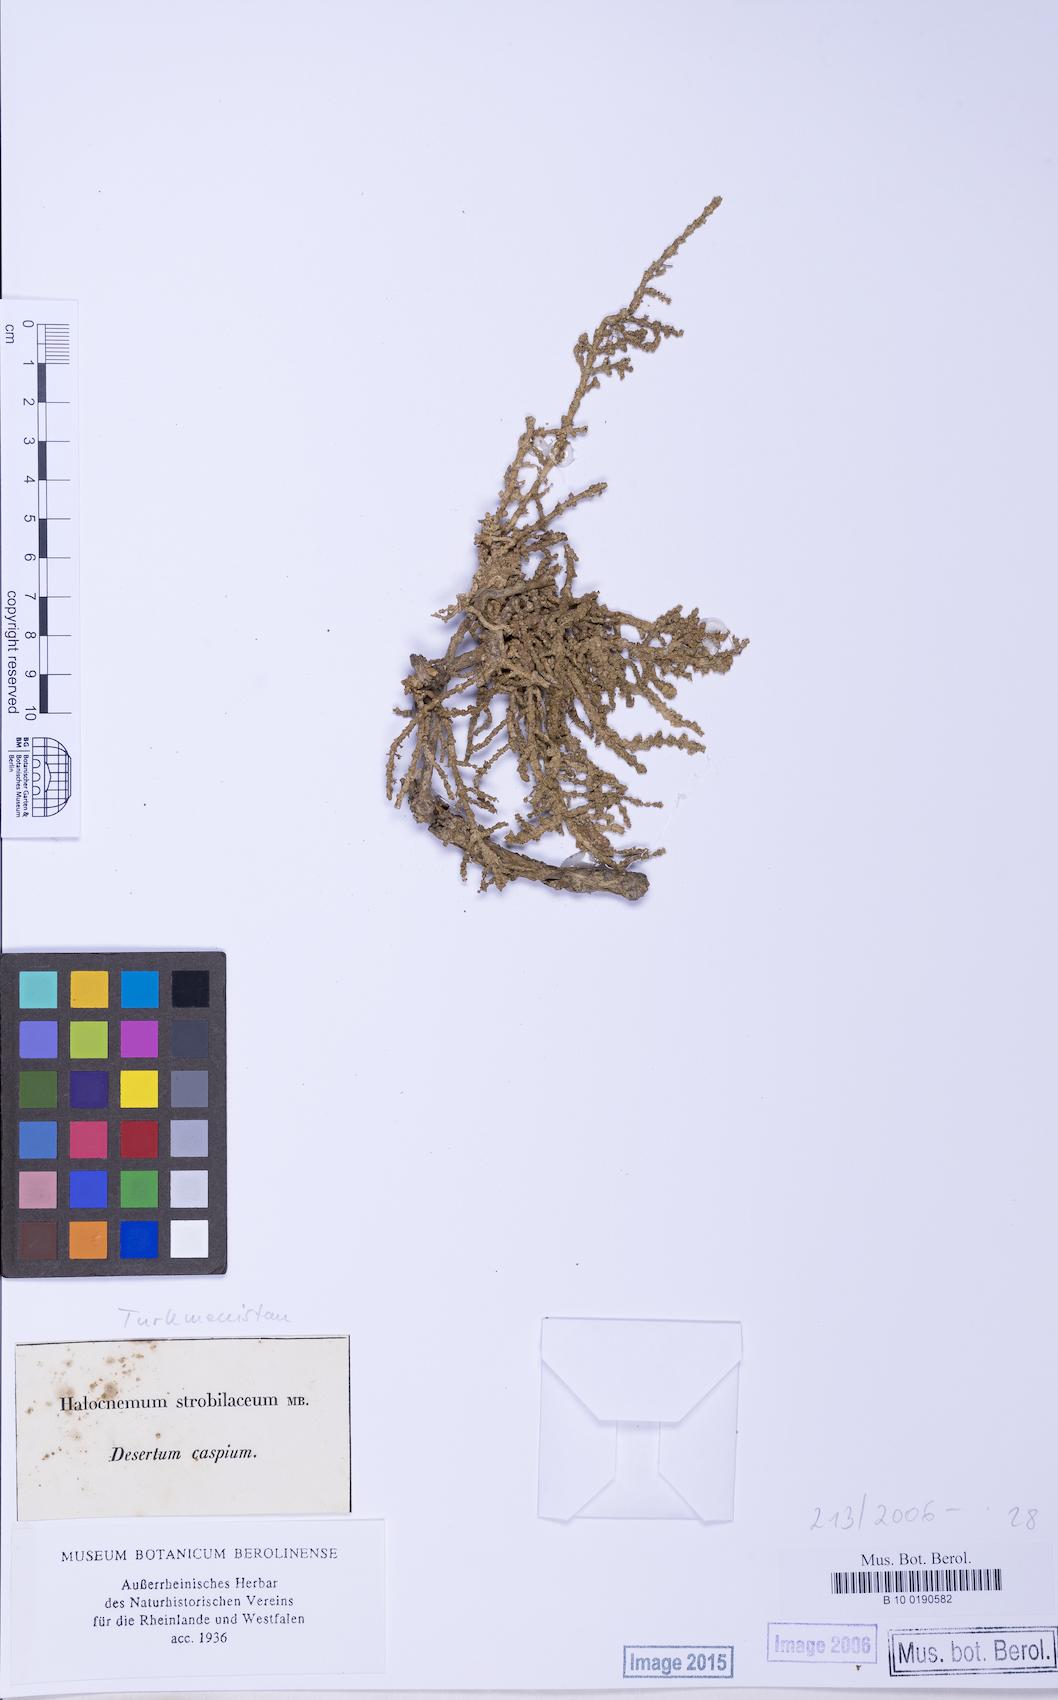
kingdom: Plantae
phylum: Tracheophyta
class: Magnoliopsida
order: Caryophyllales
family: Amaranthaceae
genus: Halocnemum
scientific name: Halocnemum strobilaceum
